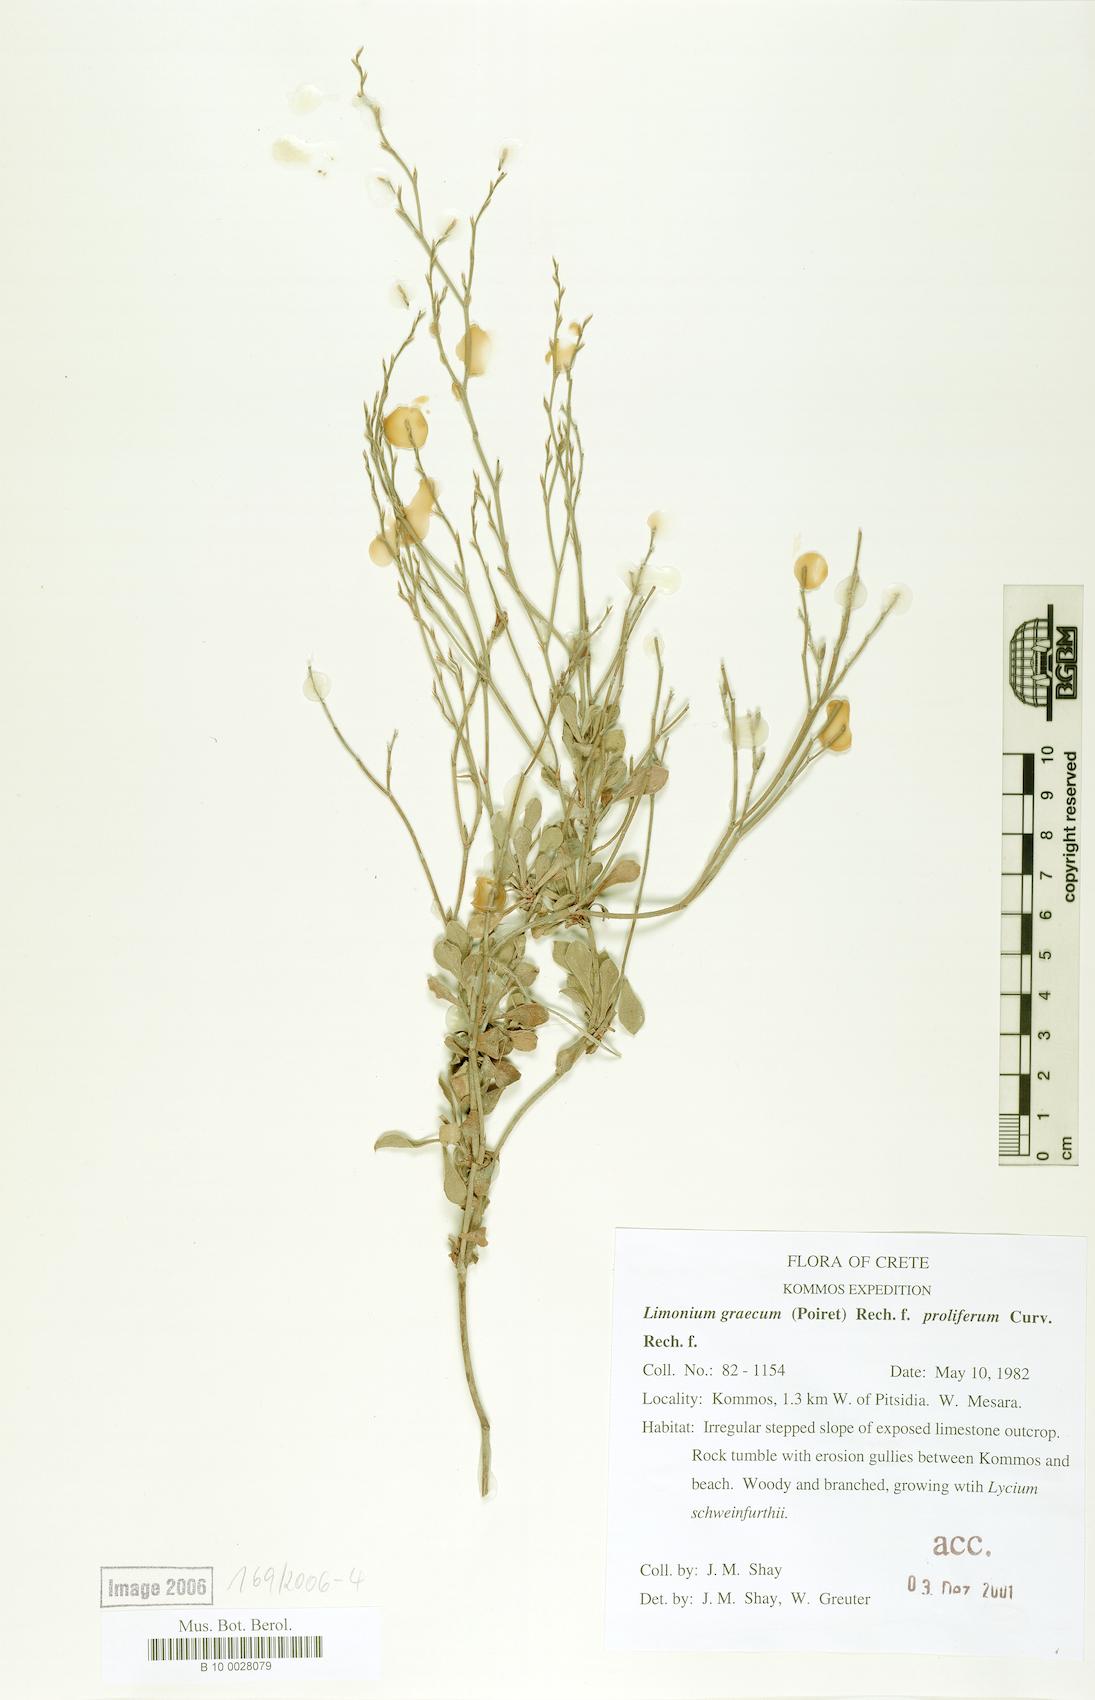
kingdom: Plantae
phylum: Tracheophyta
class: Magnoliopsida
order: Caryophyllales
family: Plumbaginaceae
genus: Limonium
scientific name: Limonium graecum
